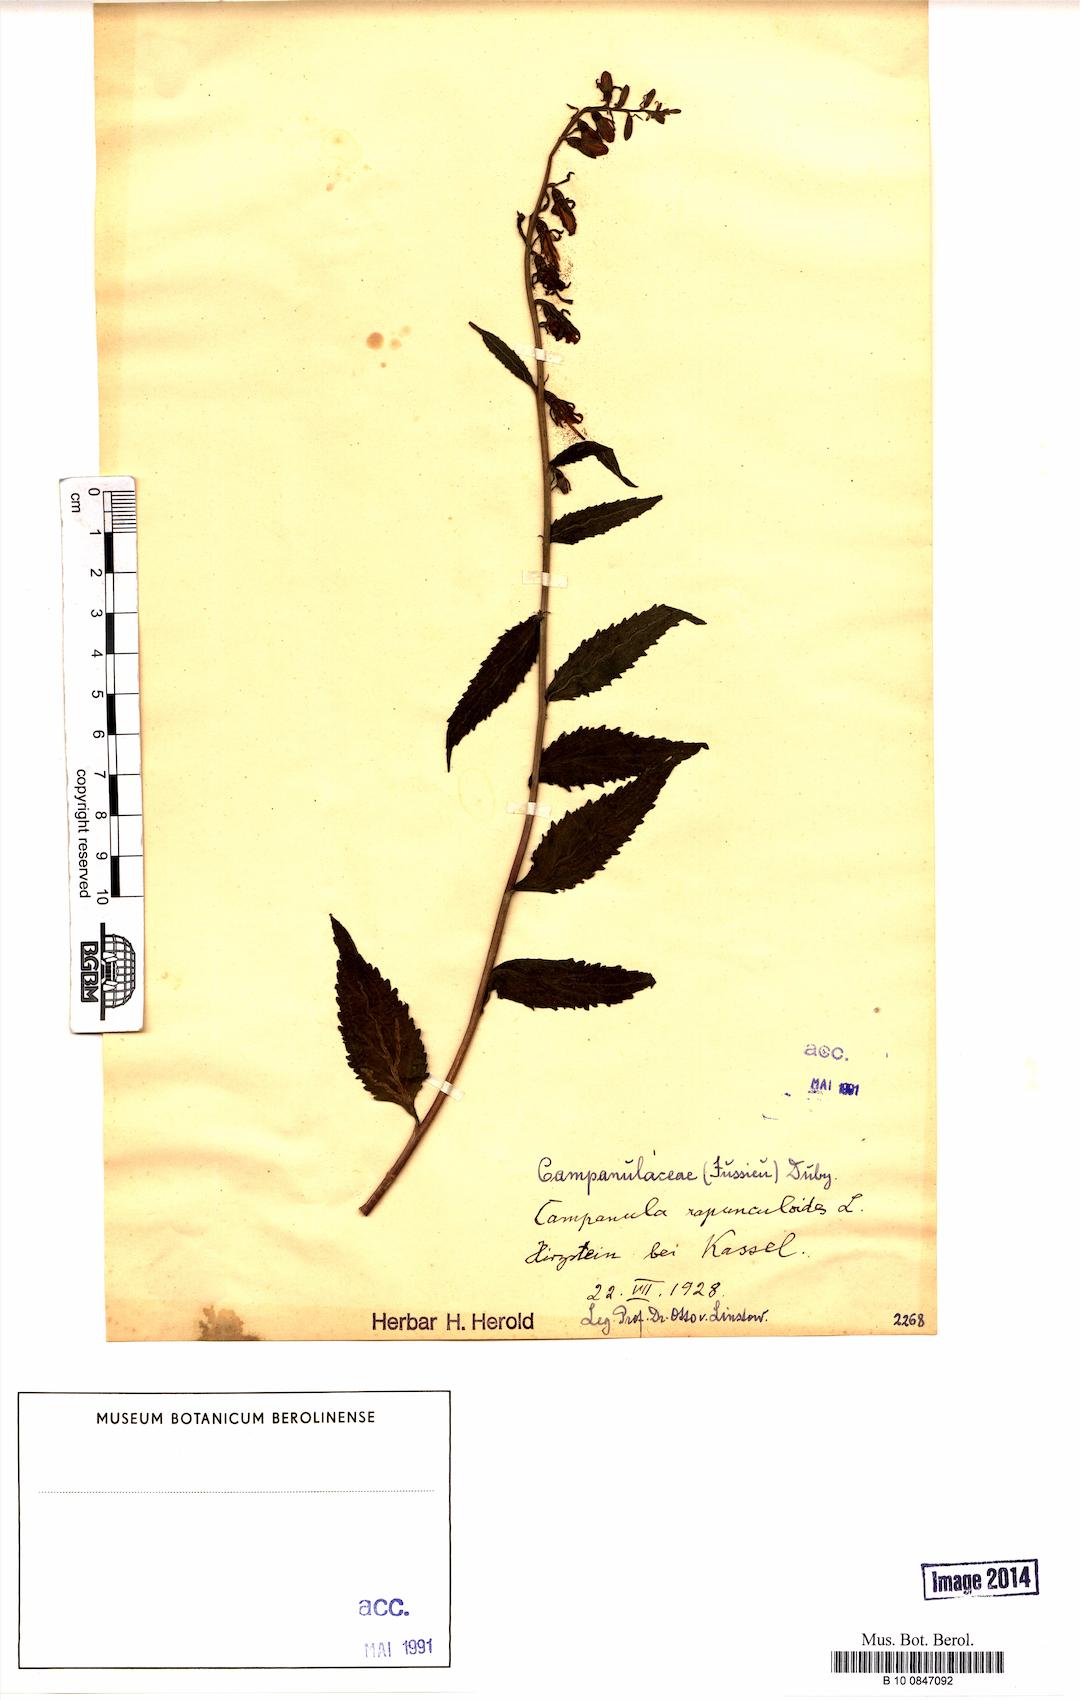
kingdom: Plantae
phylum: Tracheophyta
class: Magnoliopsida
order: Asterales
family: Campanulaceae
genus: Campanula
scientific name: Campanula rapunculoides
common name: Creeping bellflower
